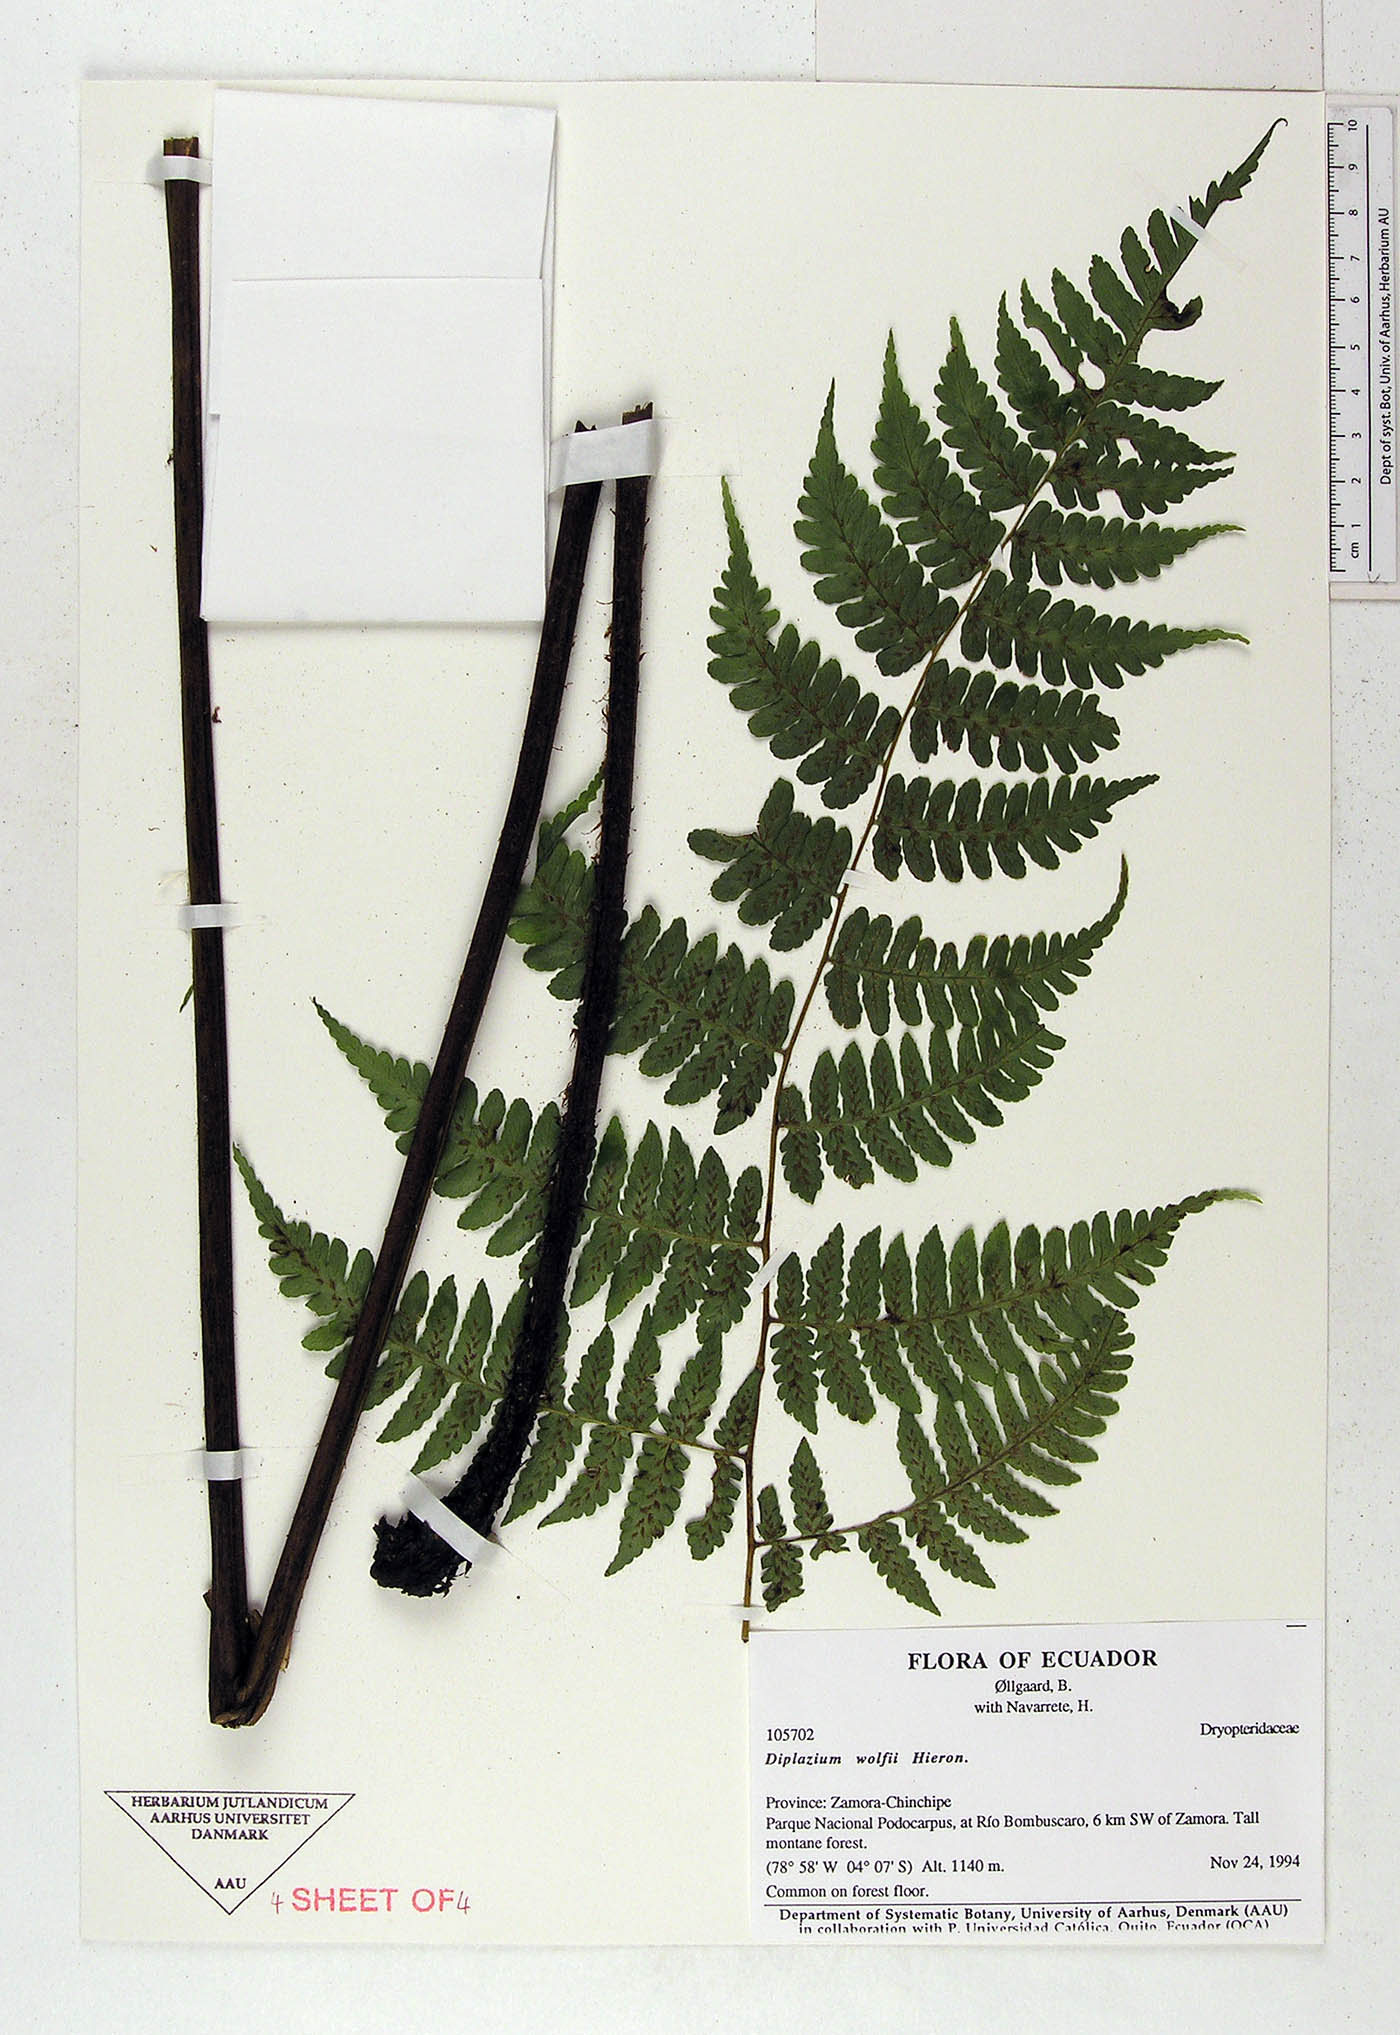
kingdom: Plantae
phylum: Tracheophyta
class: Polypodiopsida
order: Polypodiales
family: Athyriaceae
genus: Diplazium
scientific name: Diplazium wolfii
